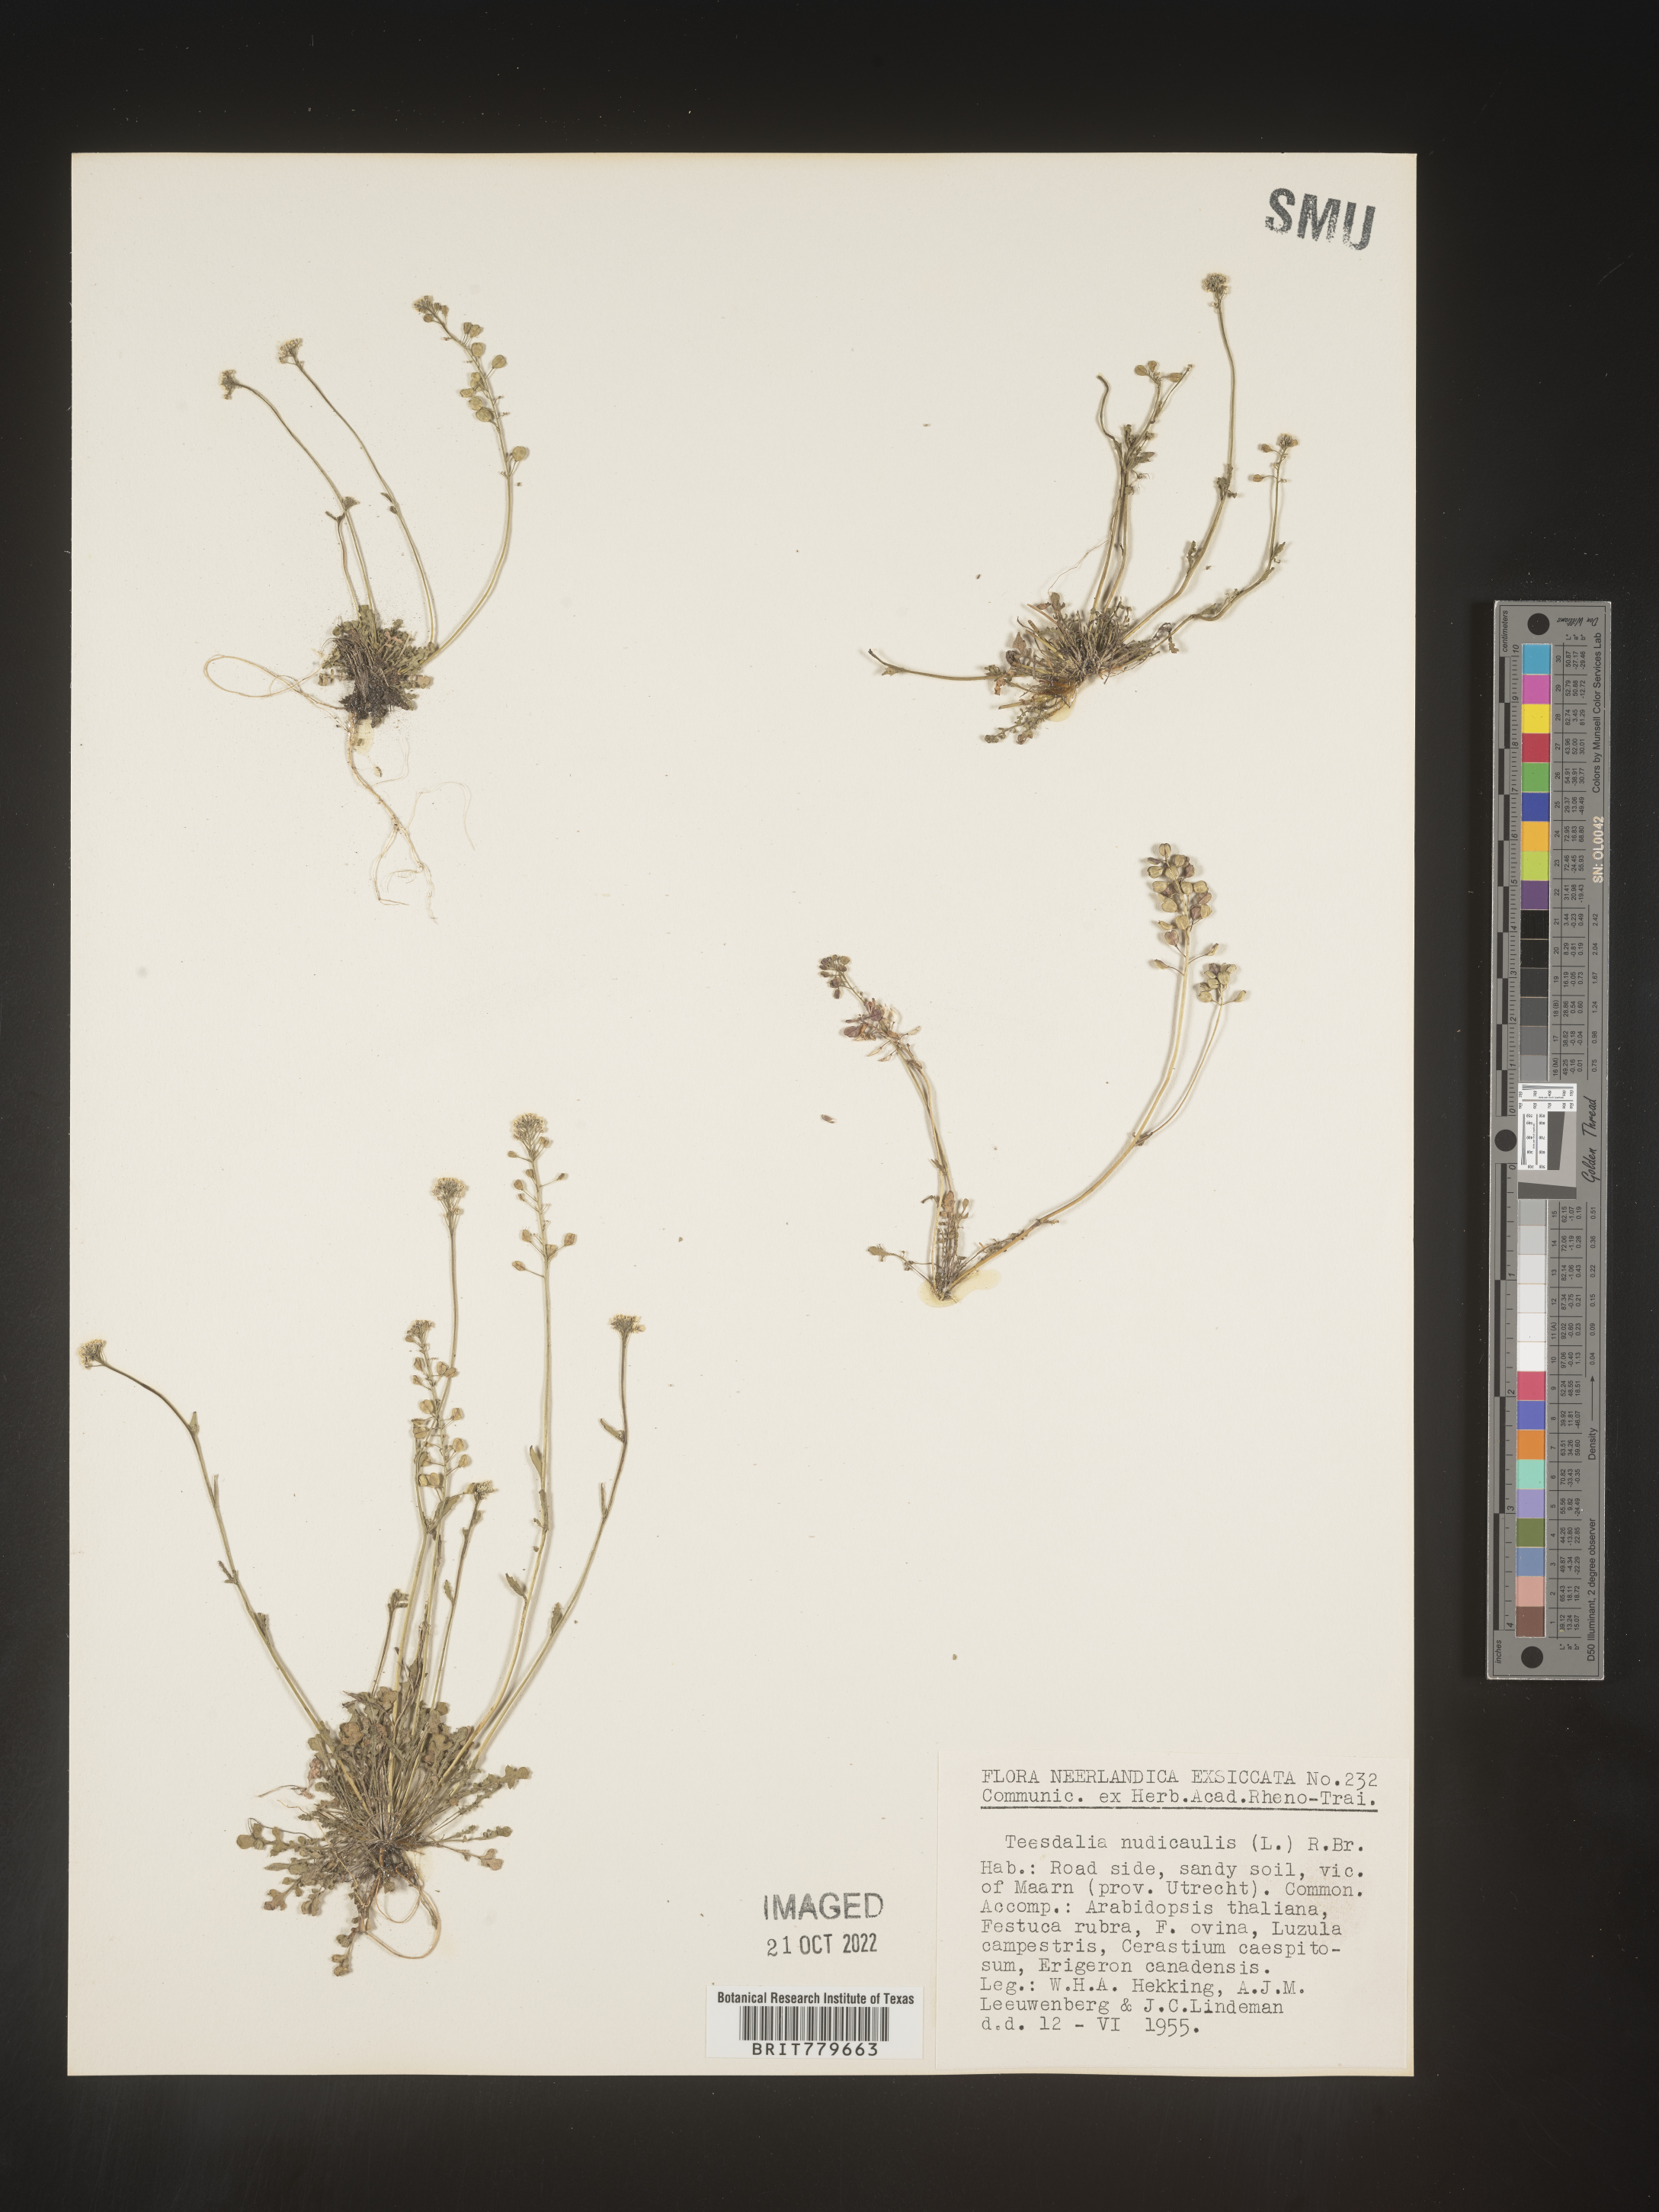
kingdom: Plantae
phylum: Tracheophyta
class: Magnoliopsida
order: Brassicales
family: Brassicaceae
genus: Teesdalia
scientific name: Teesdalia
